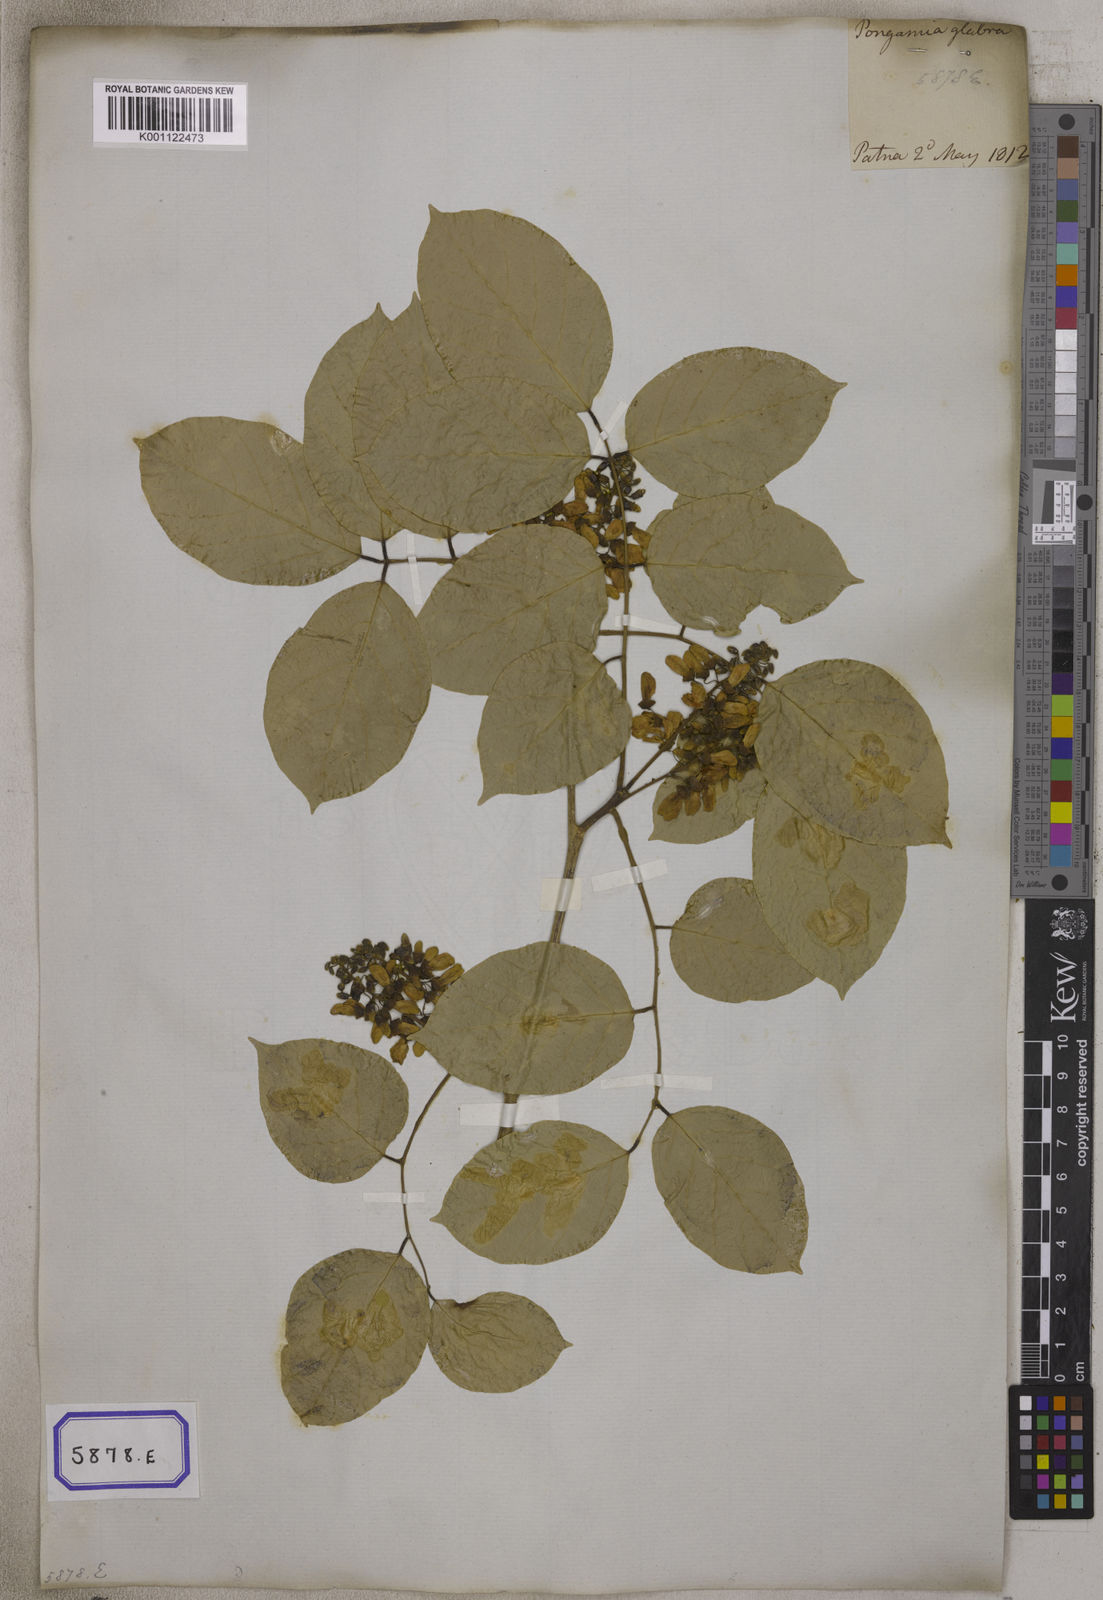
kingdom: Plantae
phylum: Tracheophyta
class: Magnoliopsida
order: Fabales
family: Fabaceae
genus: Pongamia
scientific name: Pongamia pinnata
